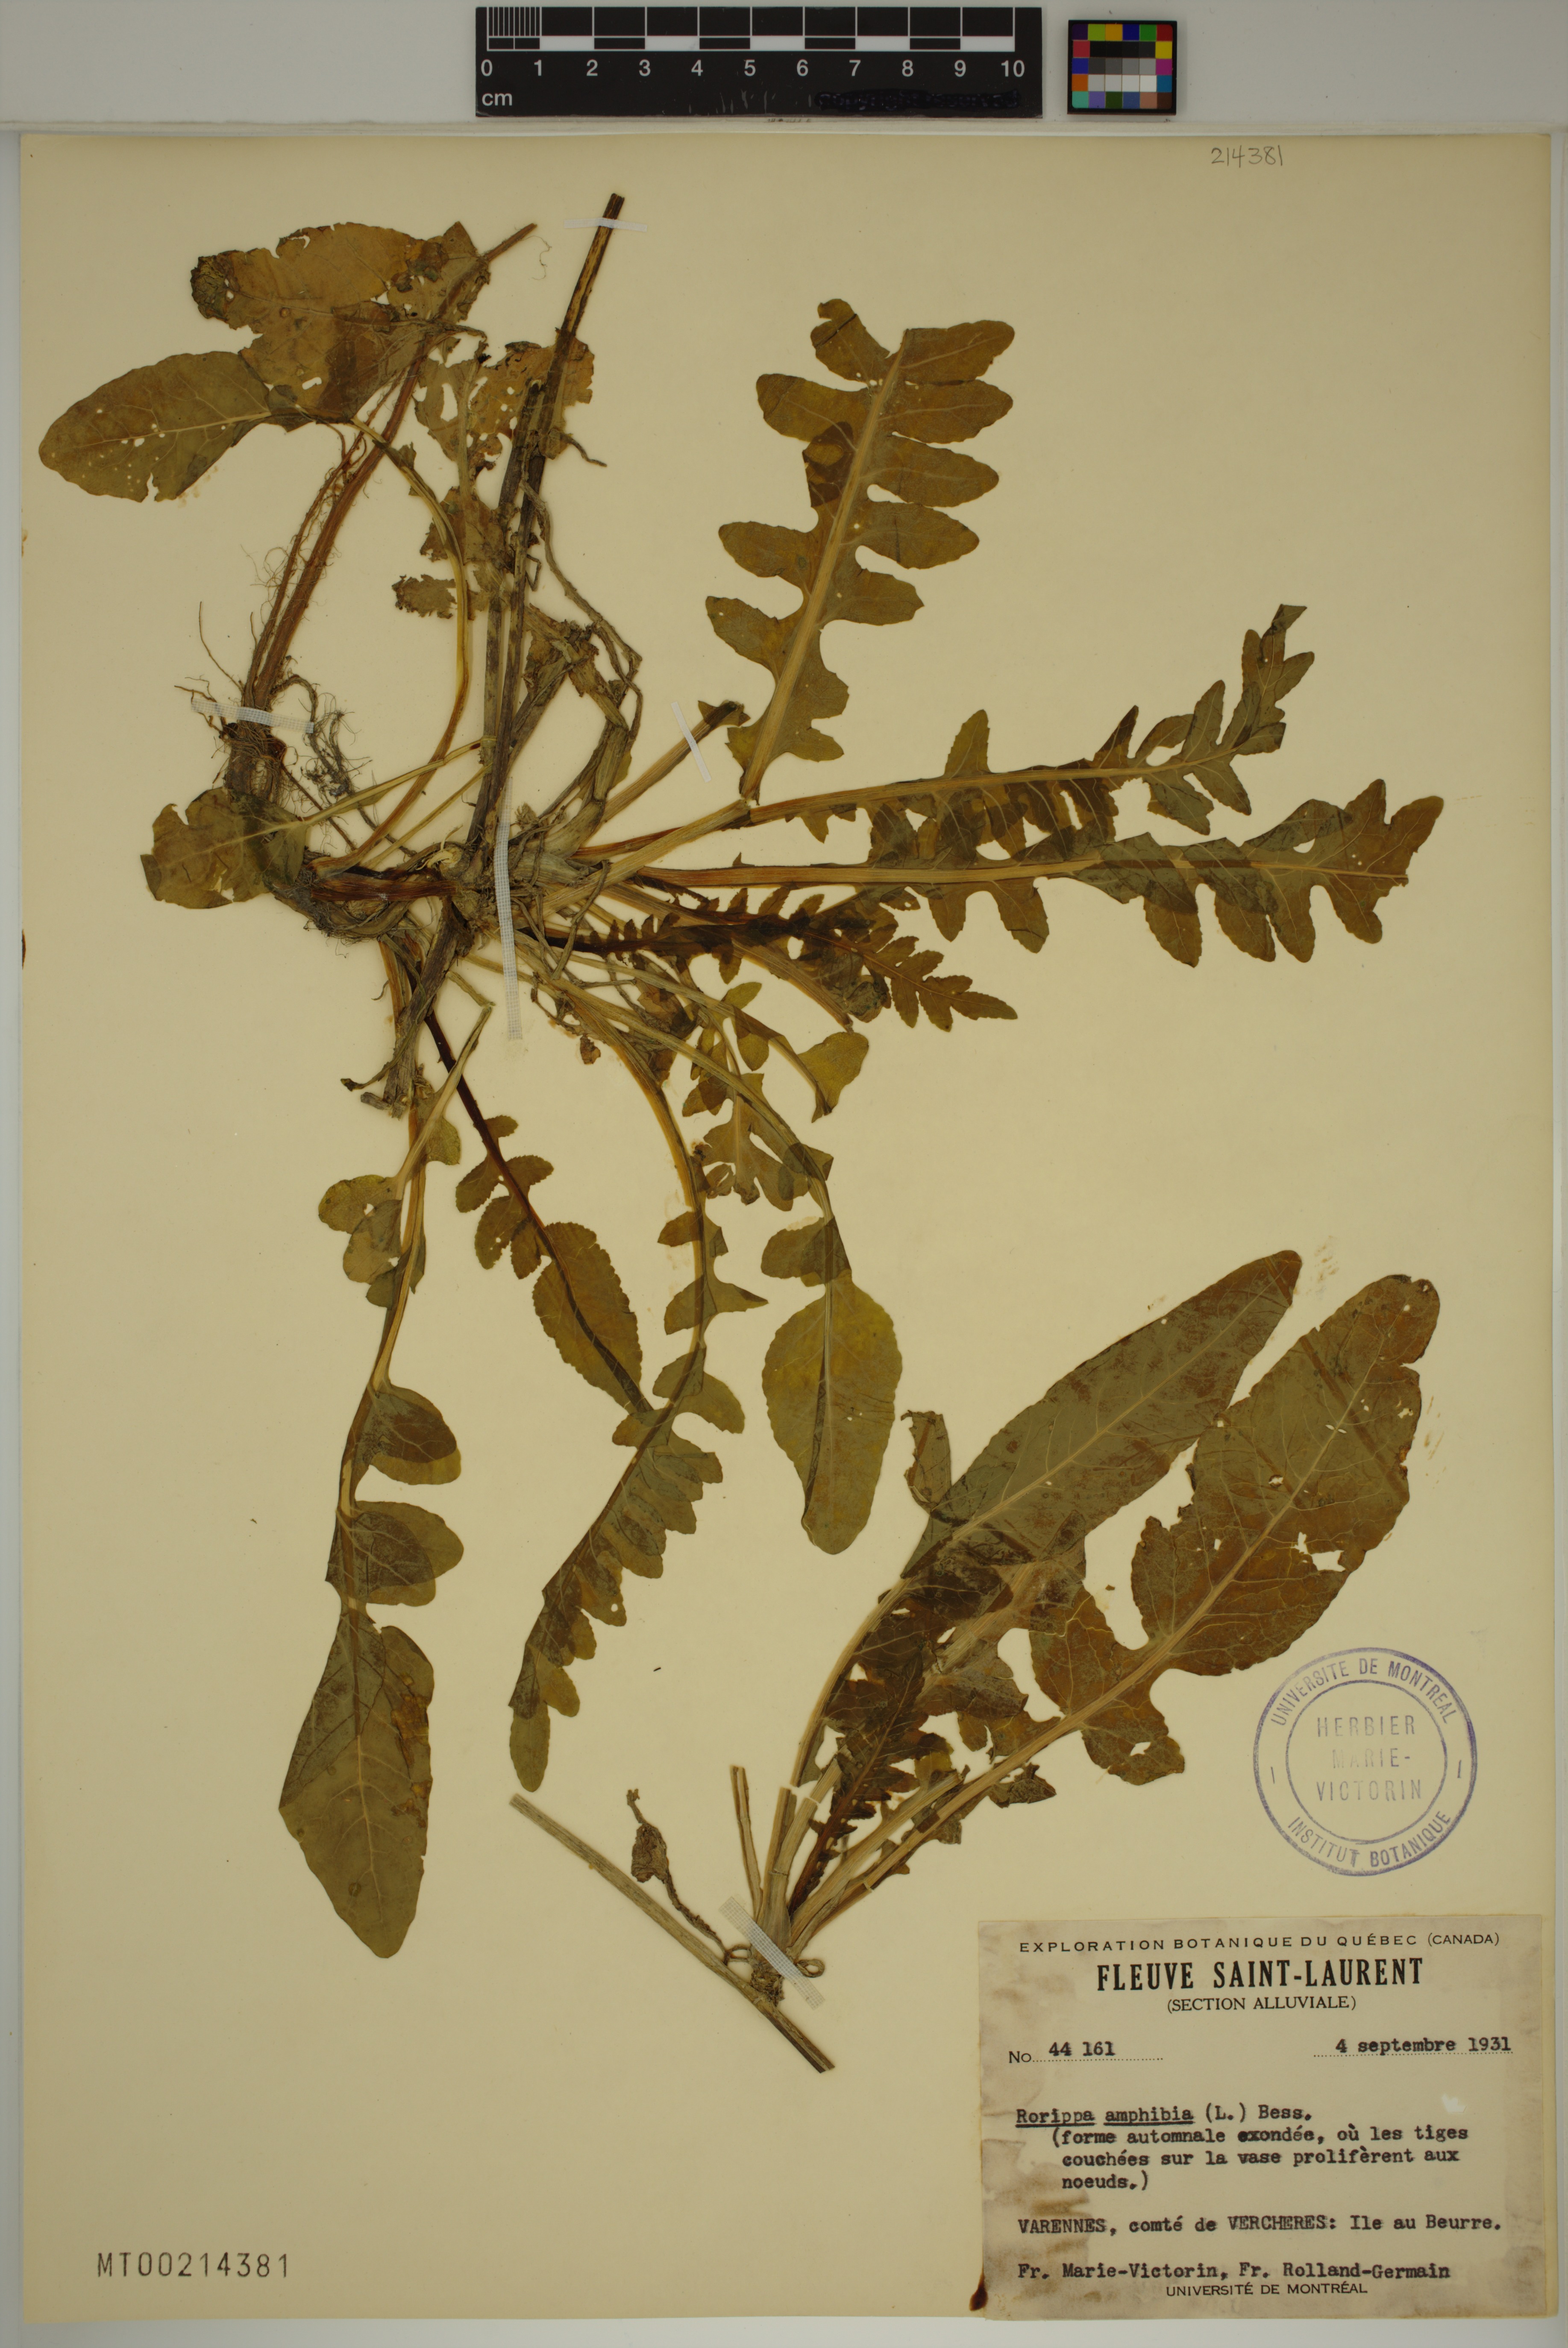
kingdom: Plantae
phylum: Tracheophyta
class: Magnoliopsida
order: Brassicales
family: Brassicaceae
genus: Rorippa
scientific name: Rorippa amphibia
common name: Great yellow-cress
